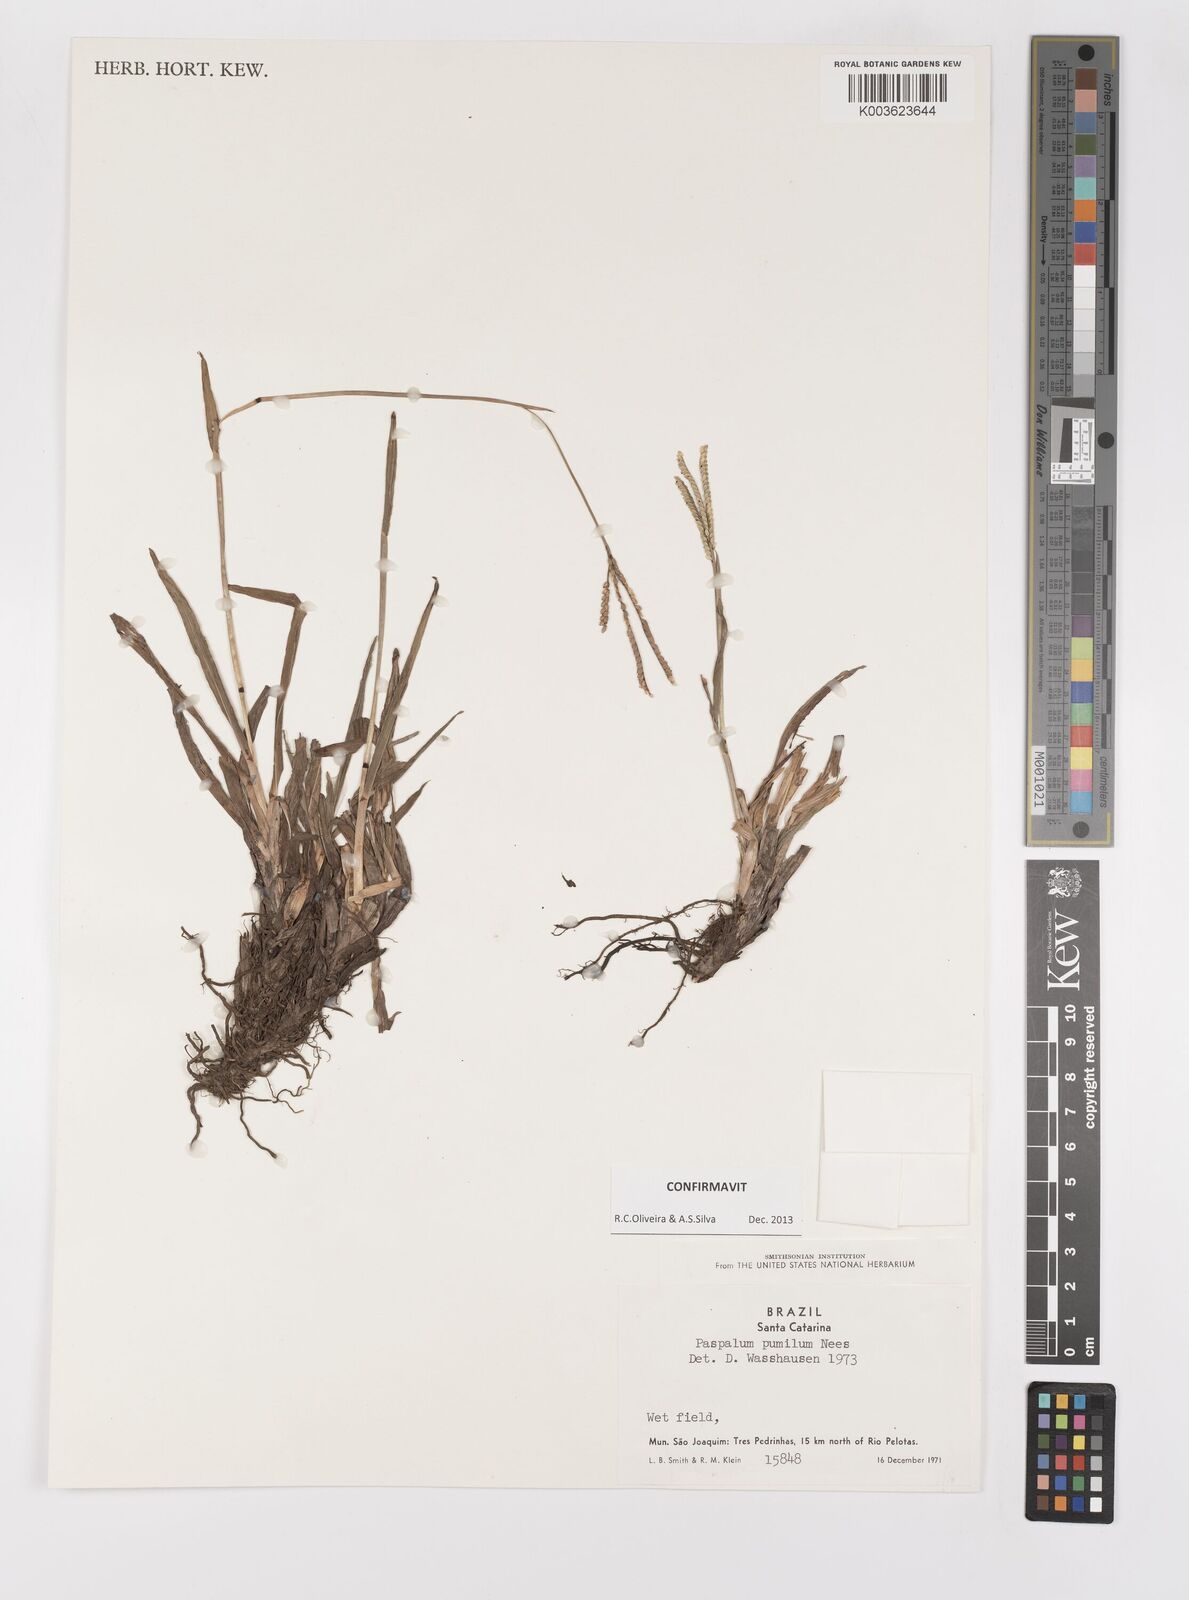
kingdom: Plantae
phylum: Tracheophyta
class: Liliopsida
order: Poales
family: Poaceae
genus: Paspalum
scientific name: Paspalum pumilum
